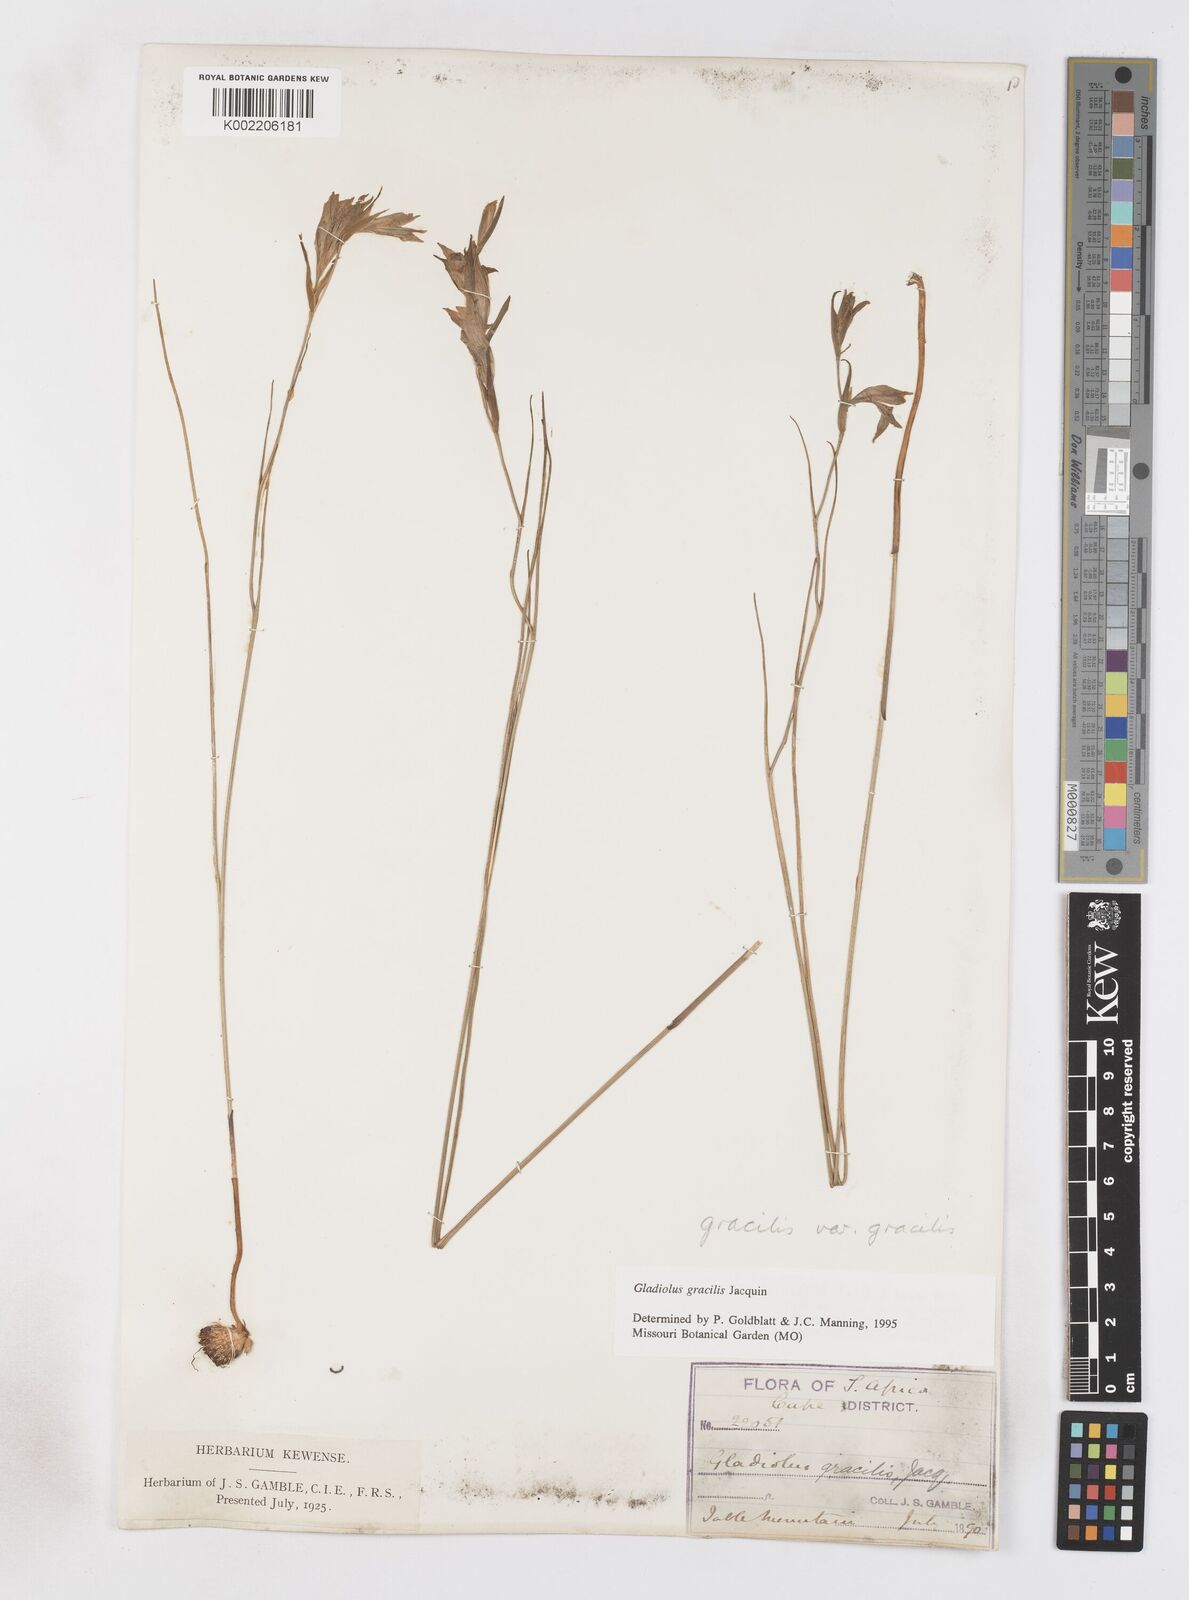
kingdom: Plantae
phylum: Tracheophyta
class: Liliopsida
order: Asparagales
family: Iridaceae
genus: Gladiolus
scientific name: Gladiolus gracilis
